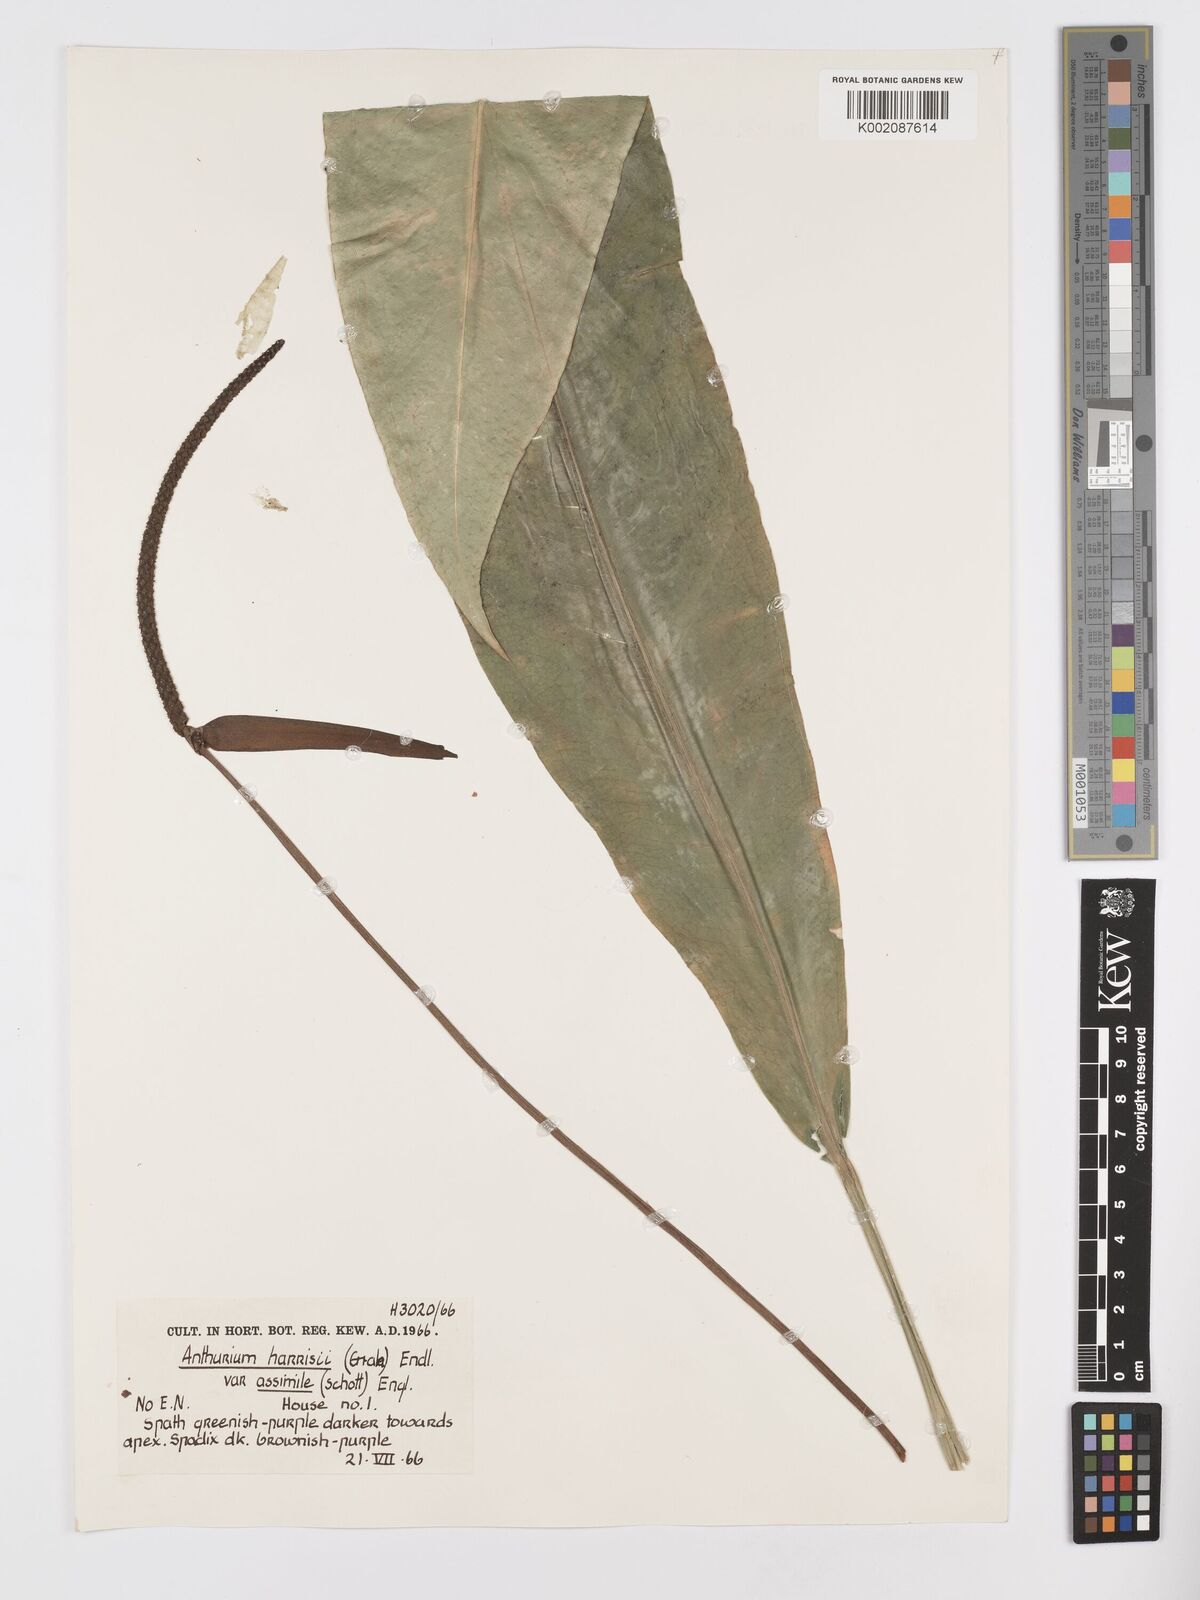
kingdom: Plantae
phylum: Tracheophyta
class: Liliopsida
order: Alismatales
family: Araceae
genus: Anthurium
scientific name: Anthurium harrisii
